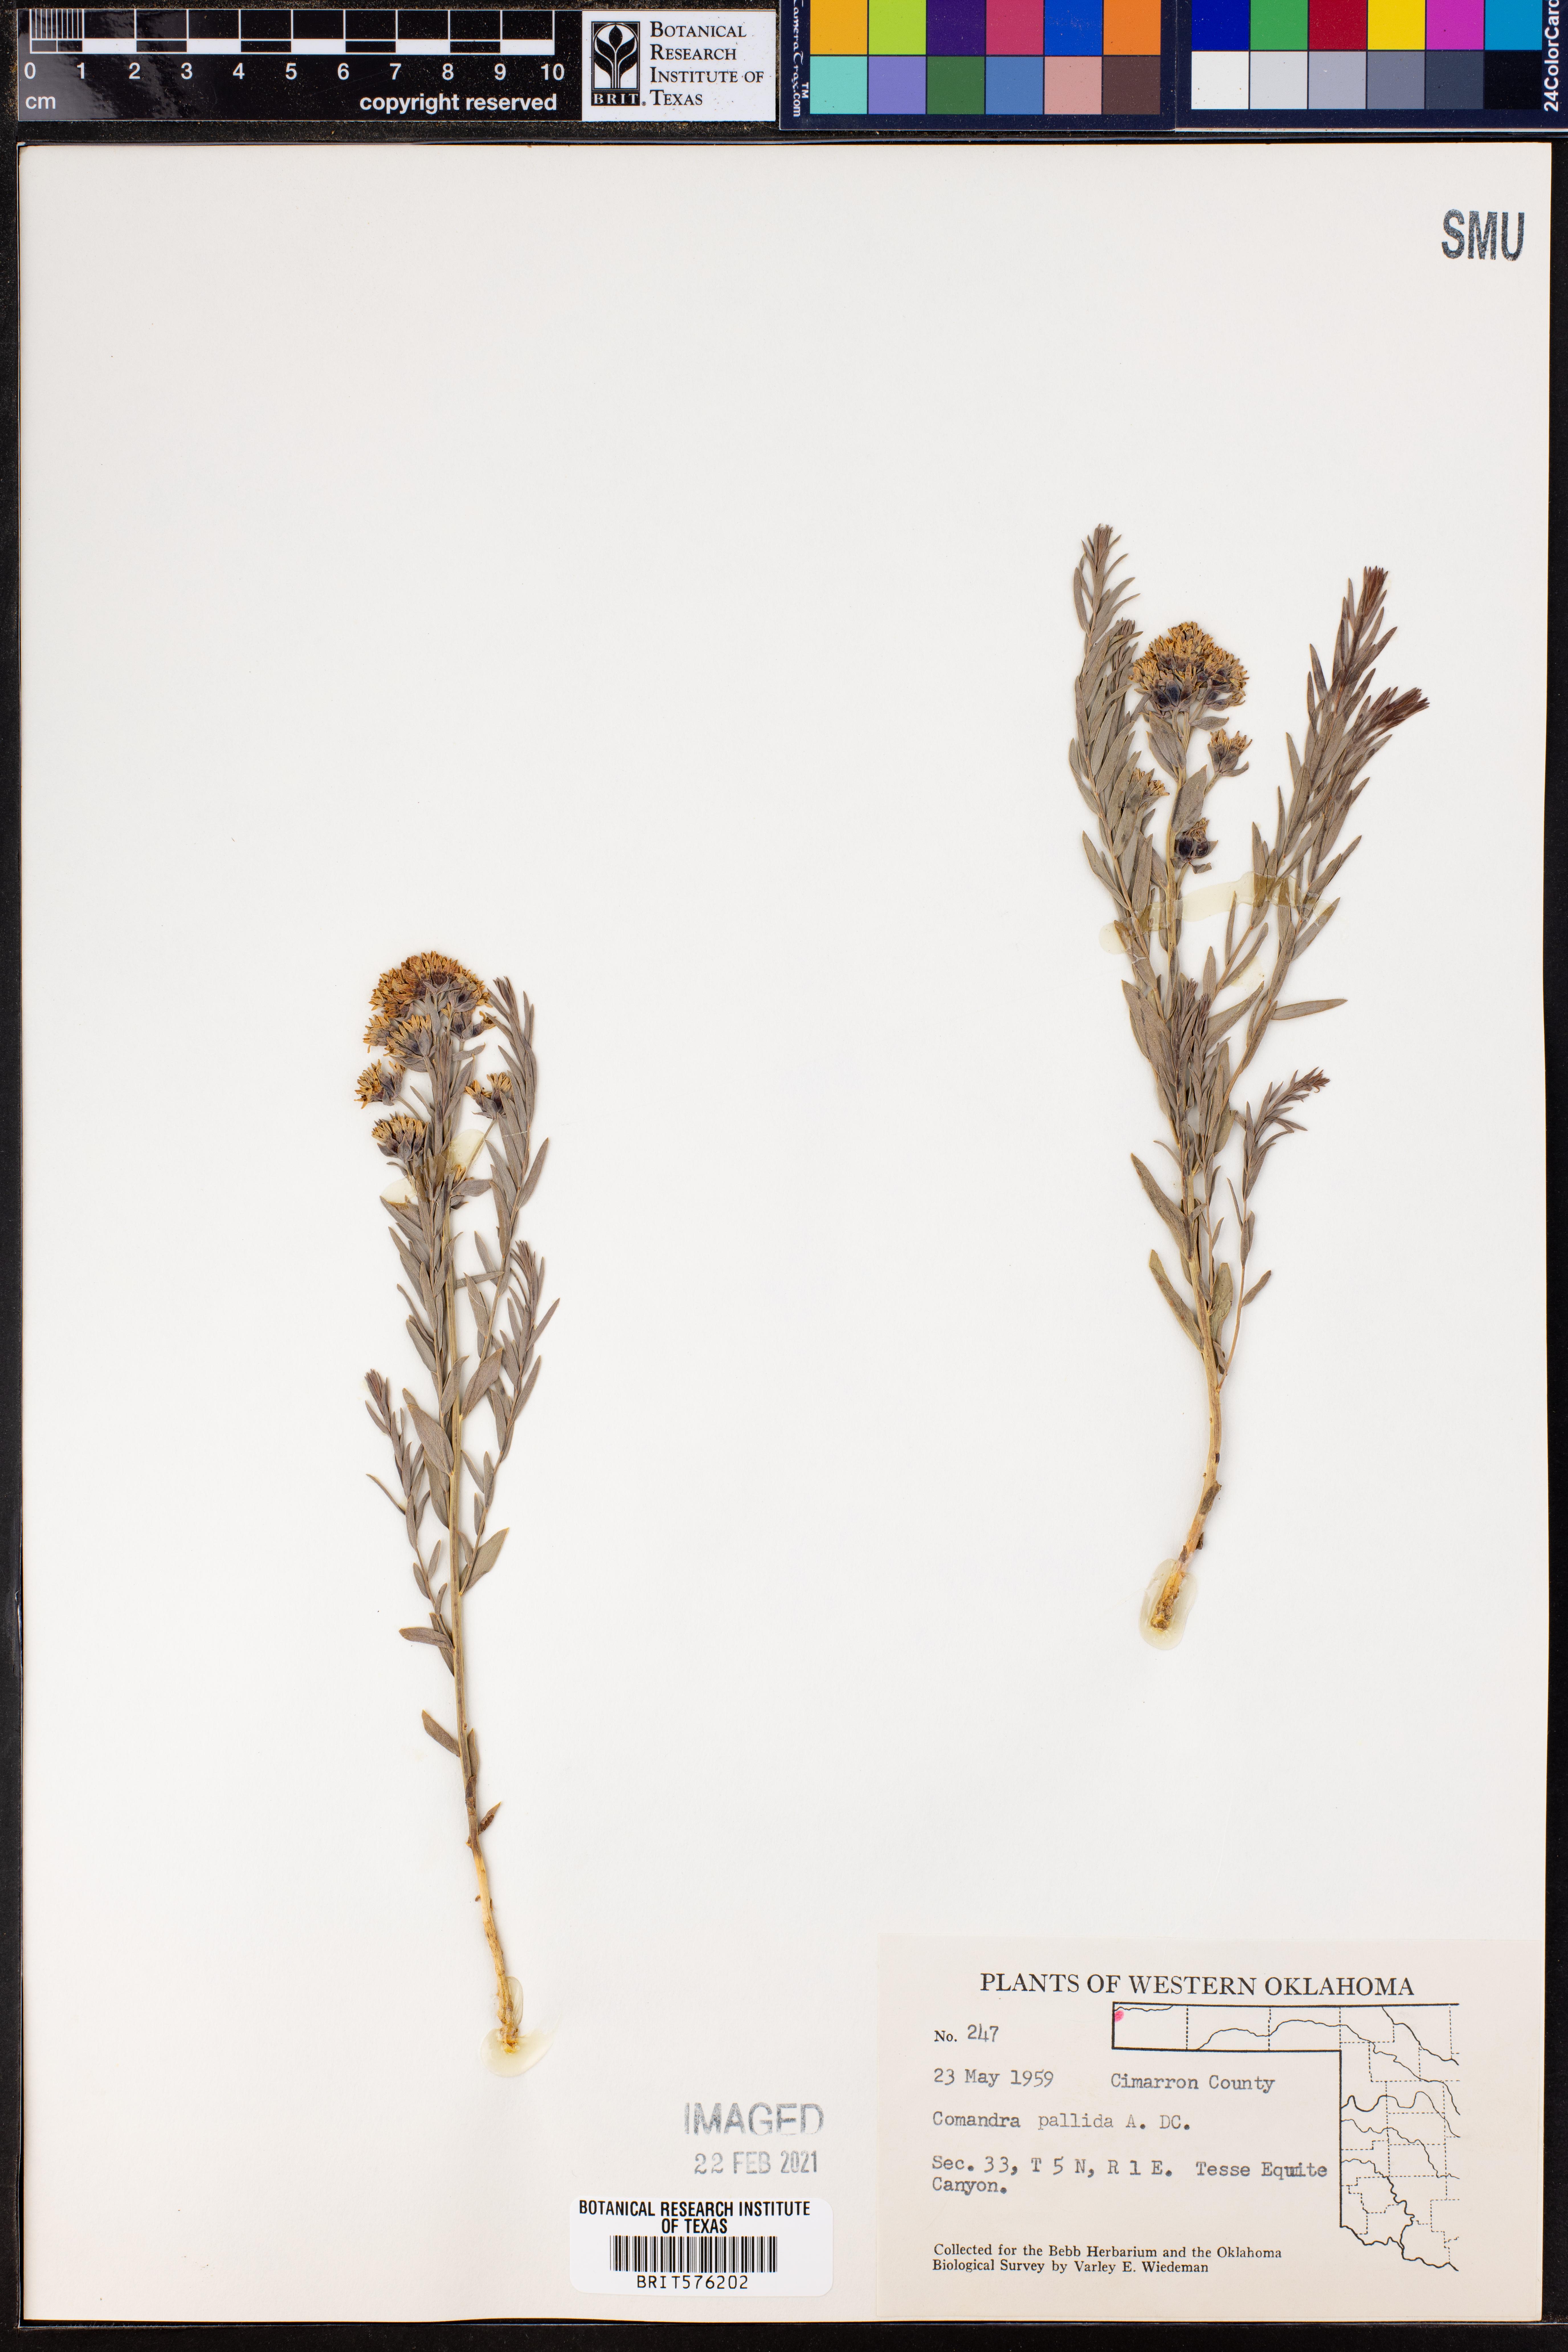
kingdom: Plantae
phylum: Tracheophyta
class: Magnoliopsida
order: Santalales
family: Comandraceae
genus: Comandra
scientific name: Comandra umbellata
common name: Bastard toadflax
